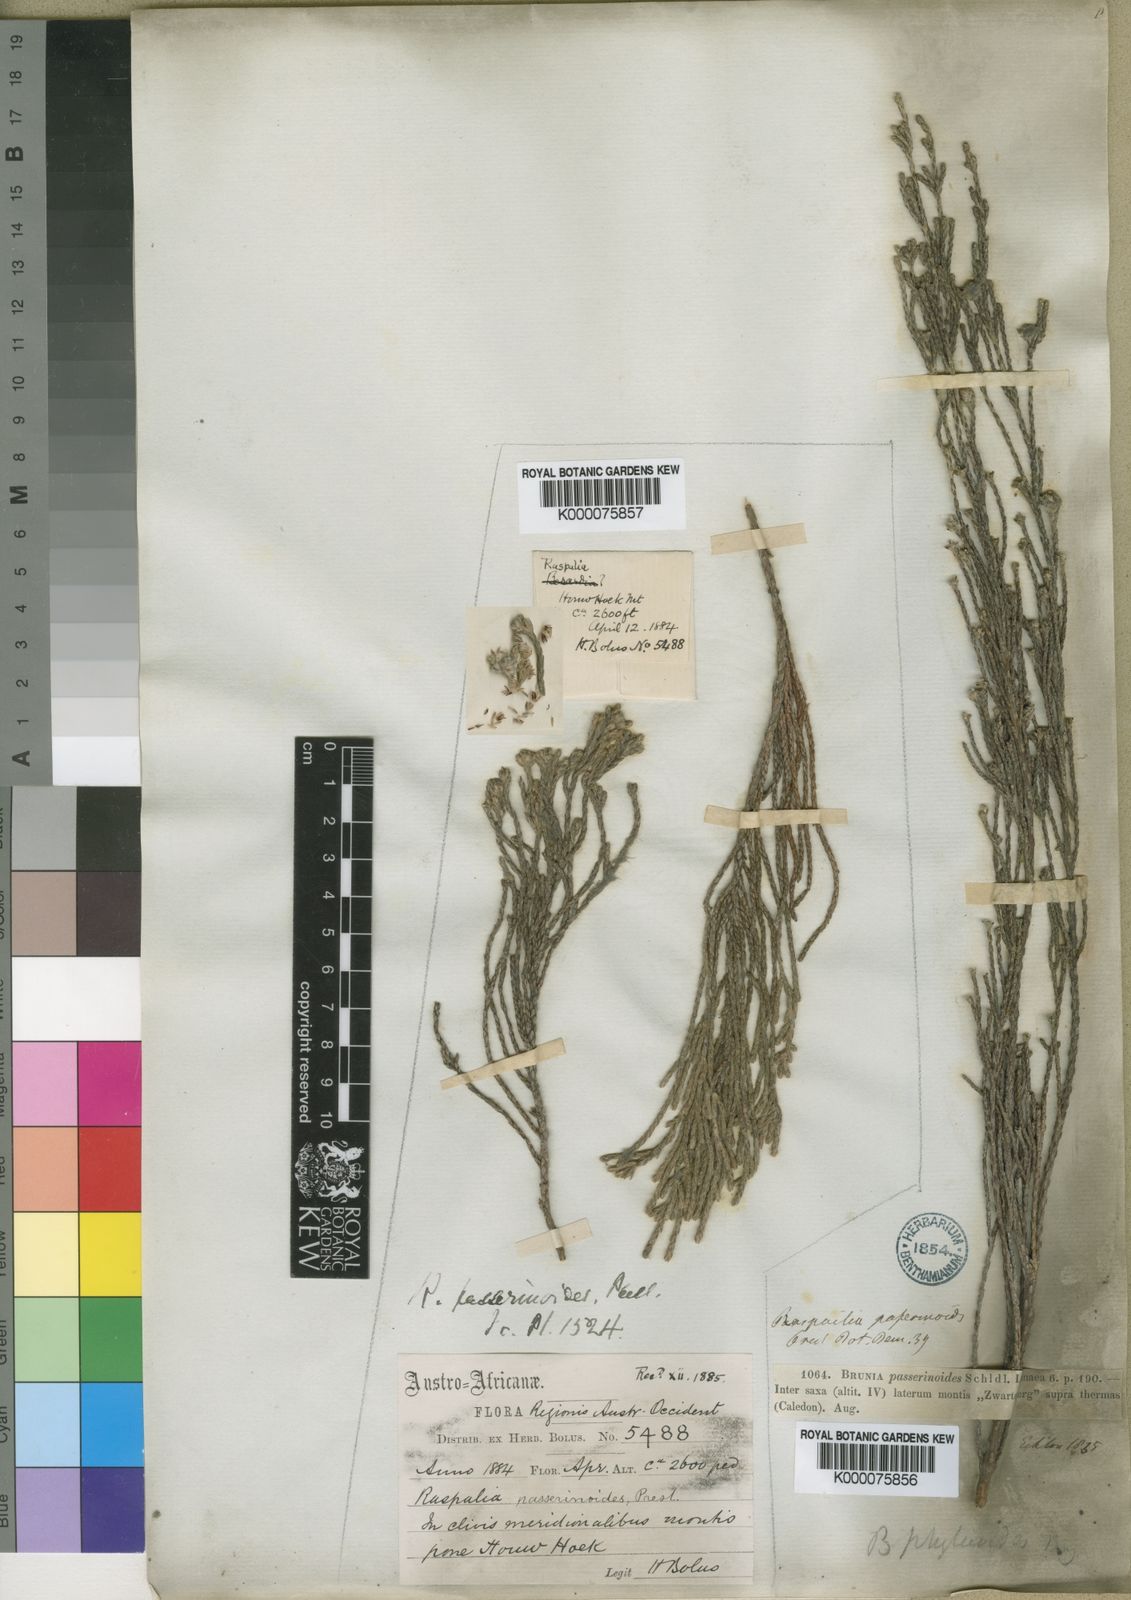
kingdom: Plantae
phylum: Tracheophyta
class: Magnoliopsida
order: Bruniales
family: Bruniaceae
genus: Brunia
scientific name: Brunia phylicoides
